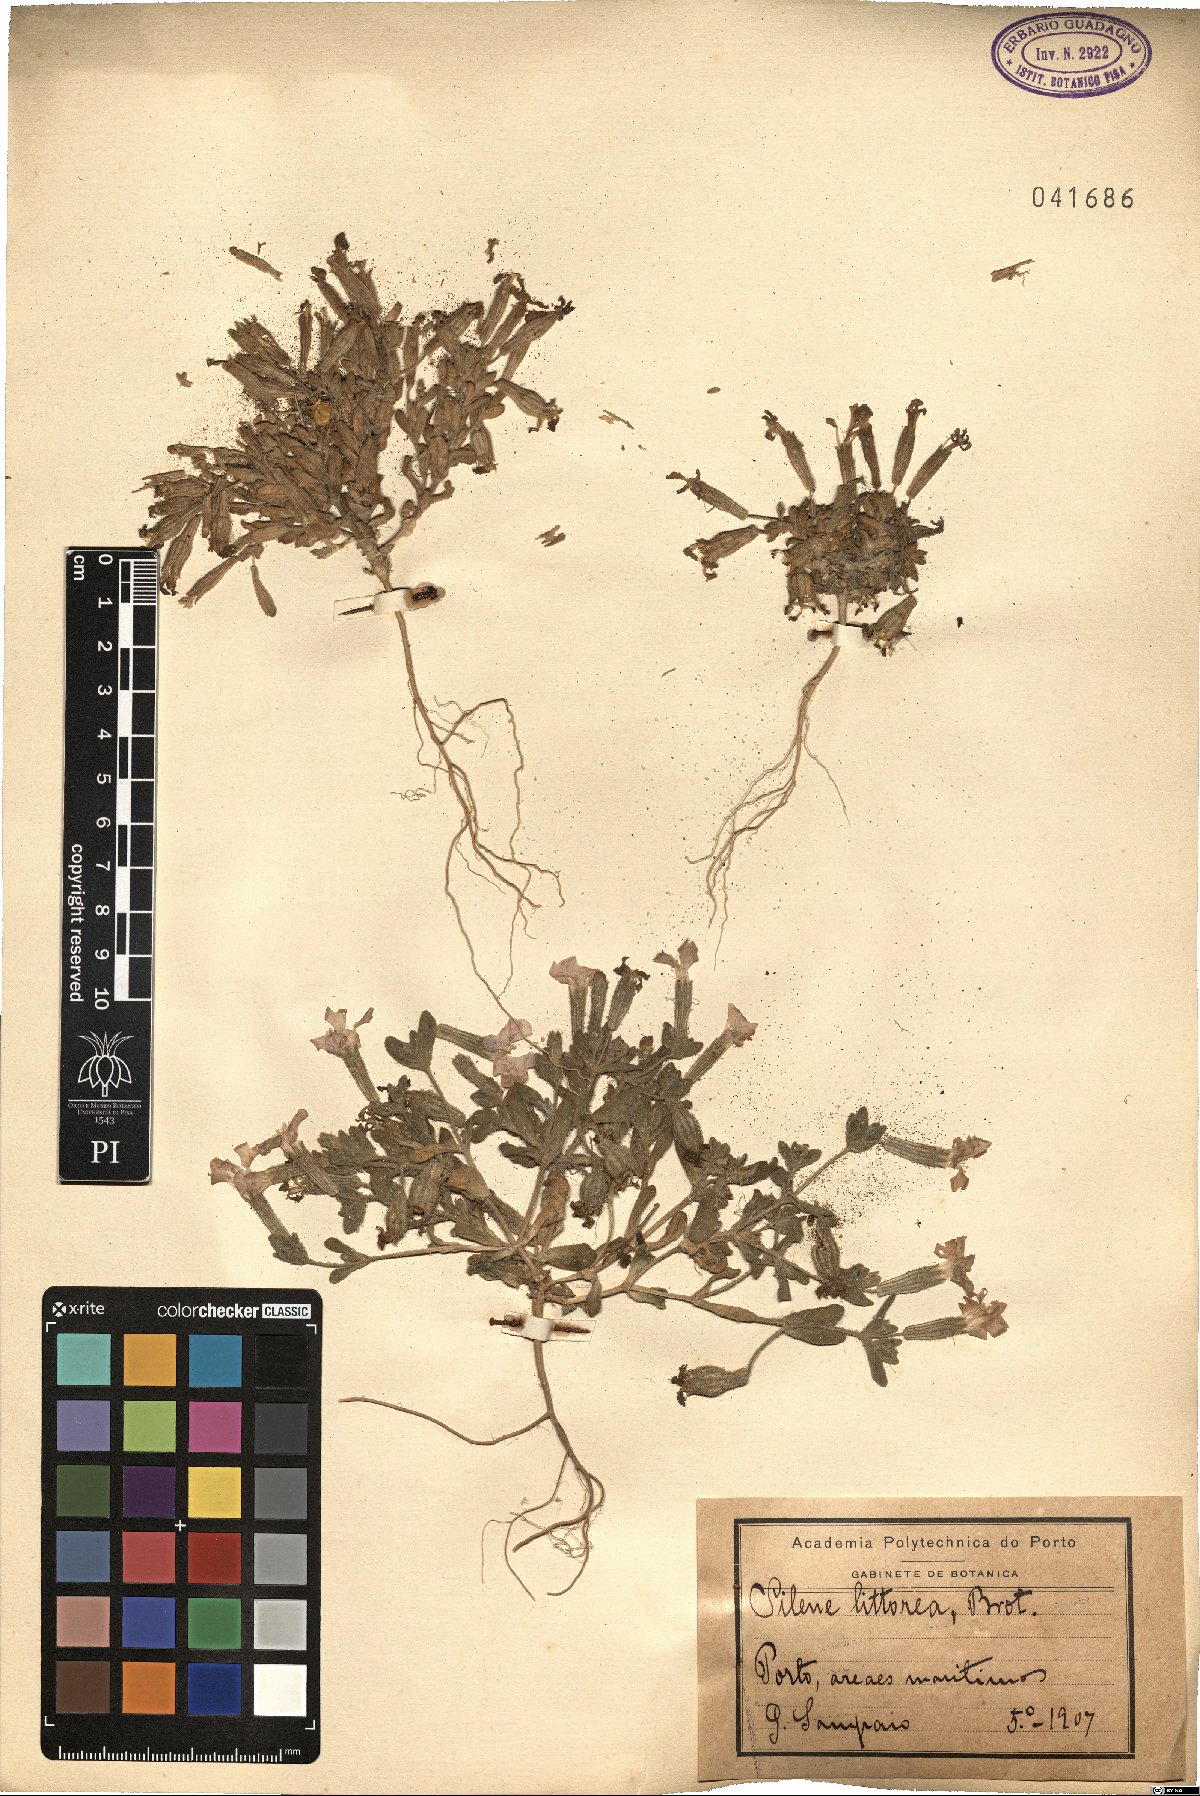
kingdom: Plantae
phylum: Tracheophyta
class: Magnoliopsida
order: Caryophyllales
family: Caryophyllaceae
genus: Silene
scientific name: Silene littorea
